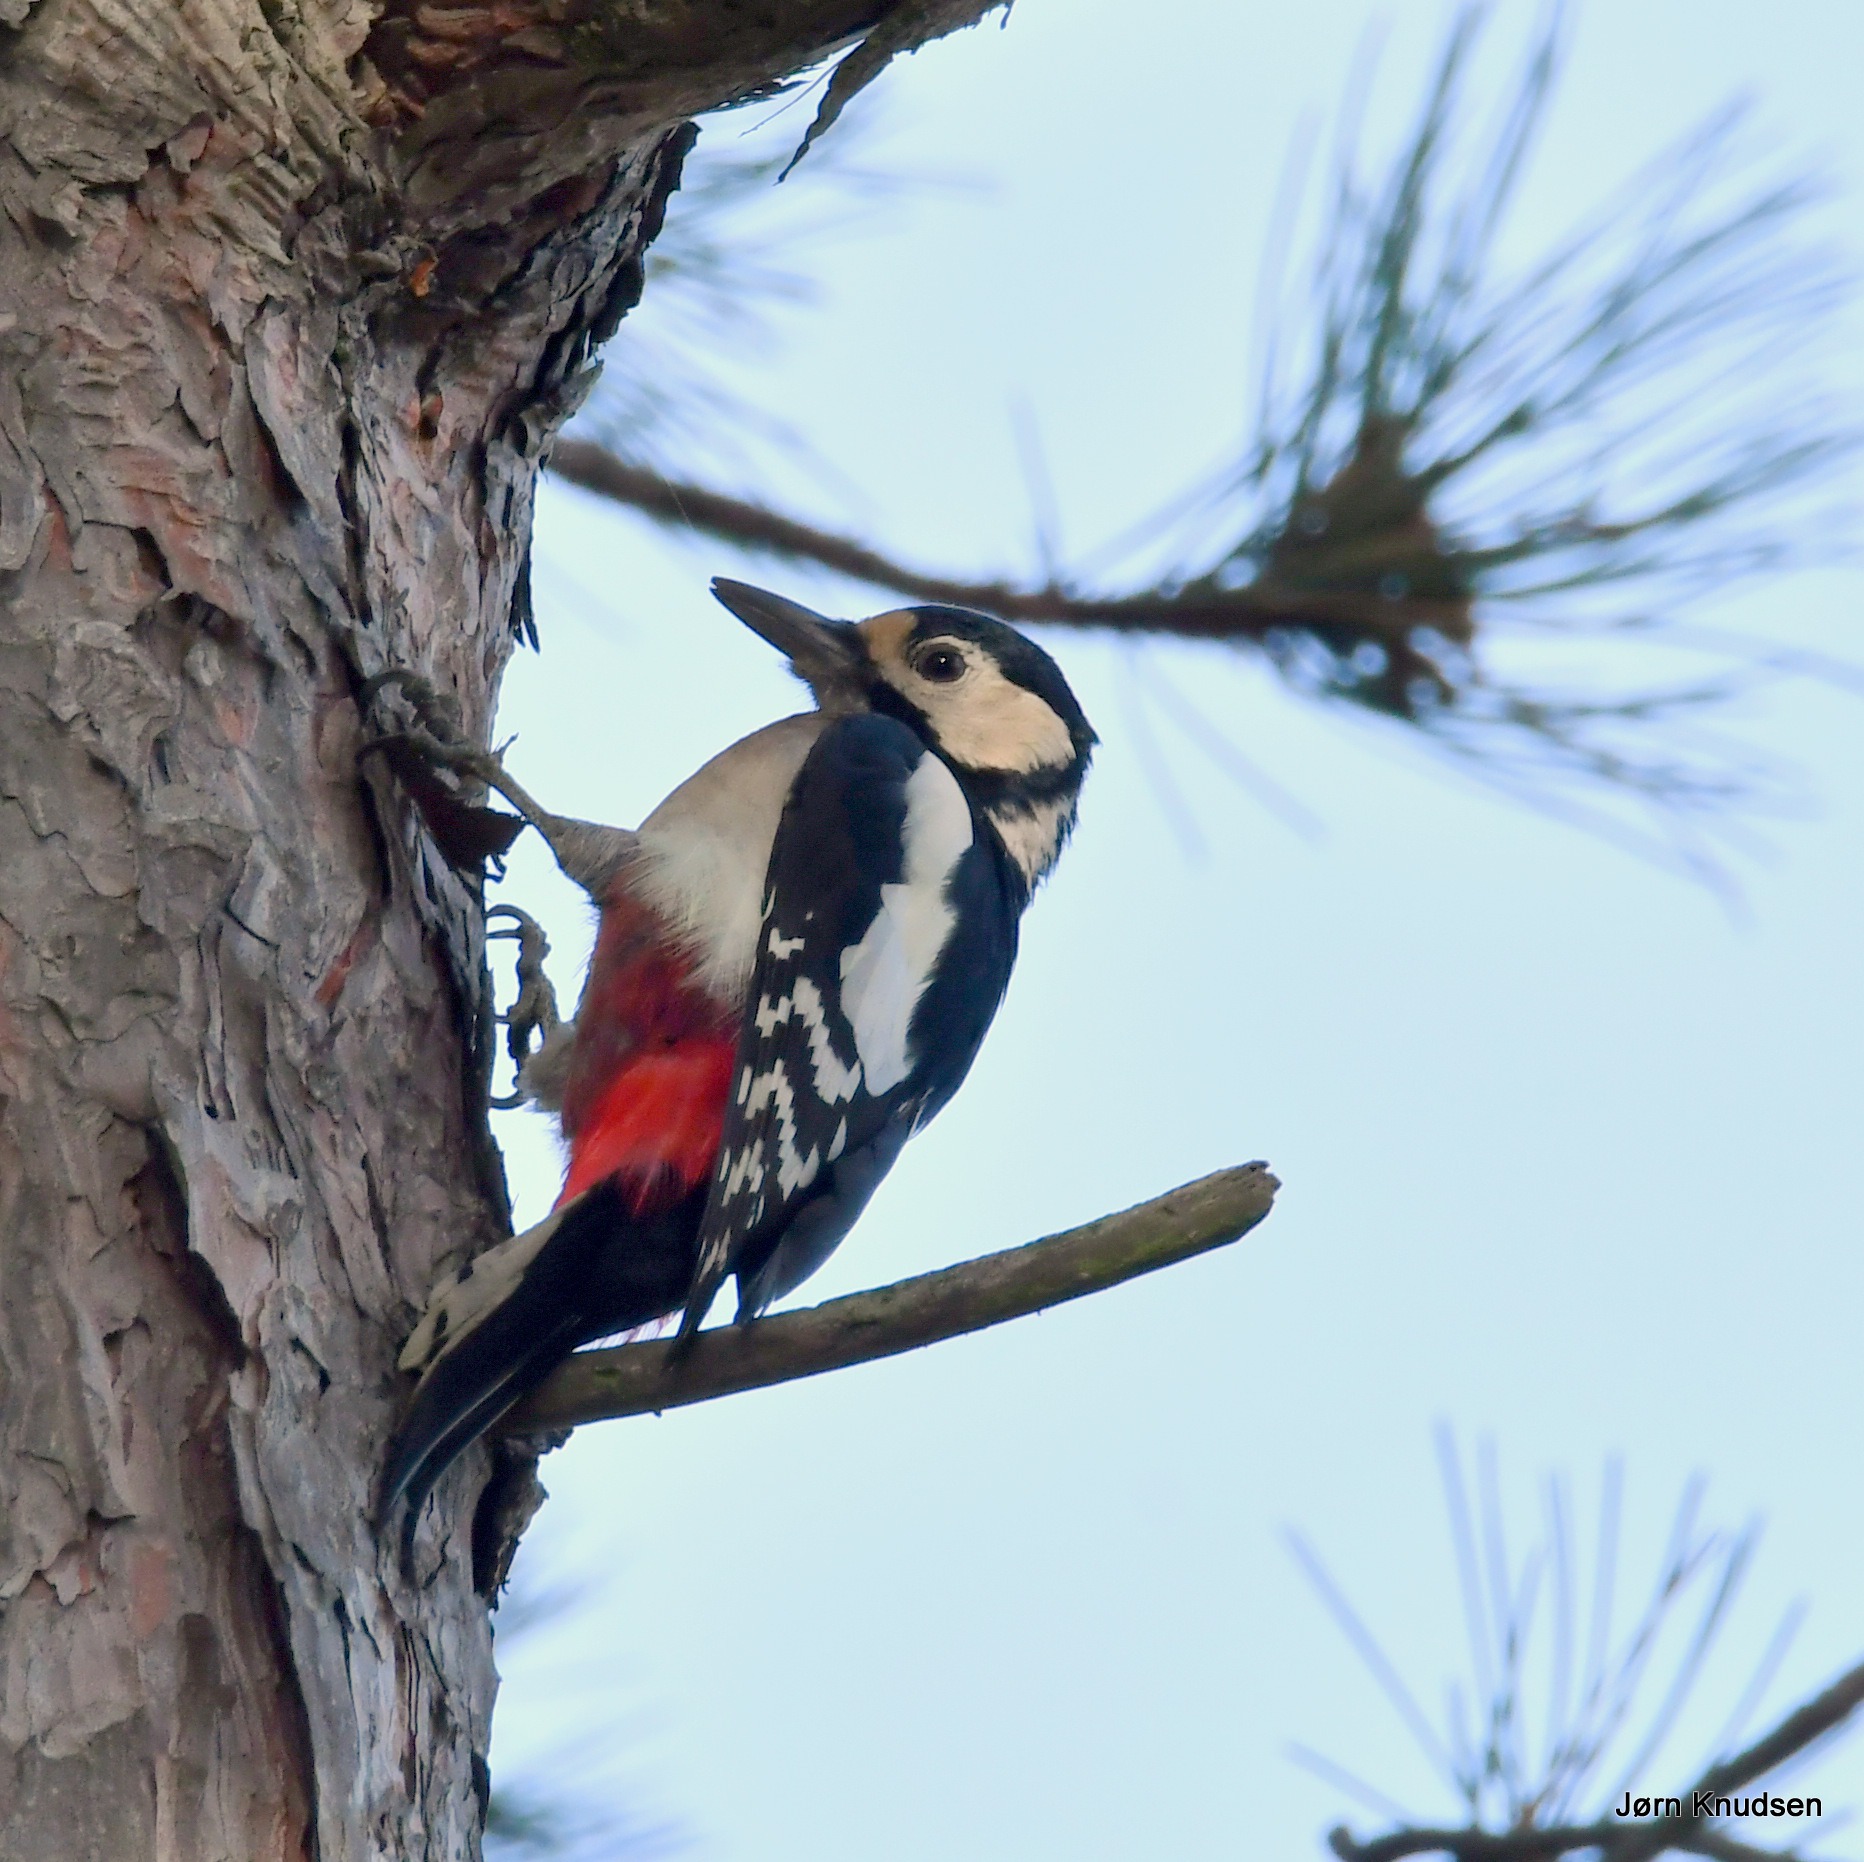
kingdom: Animalia
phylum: Chordata
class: Aves
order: Piciformes
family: Picidae
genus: Dendrocopos
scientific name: Dendrocopos major
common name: Stor flagspætte
